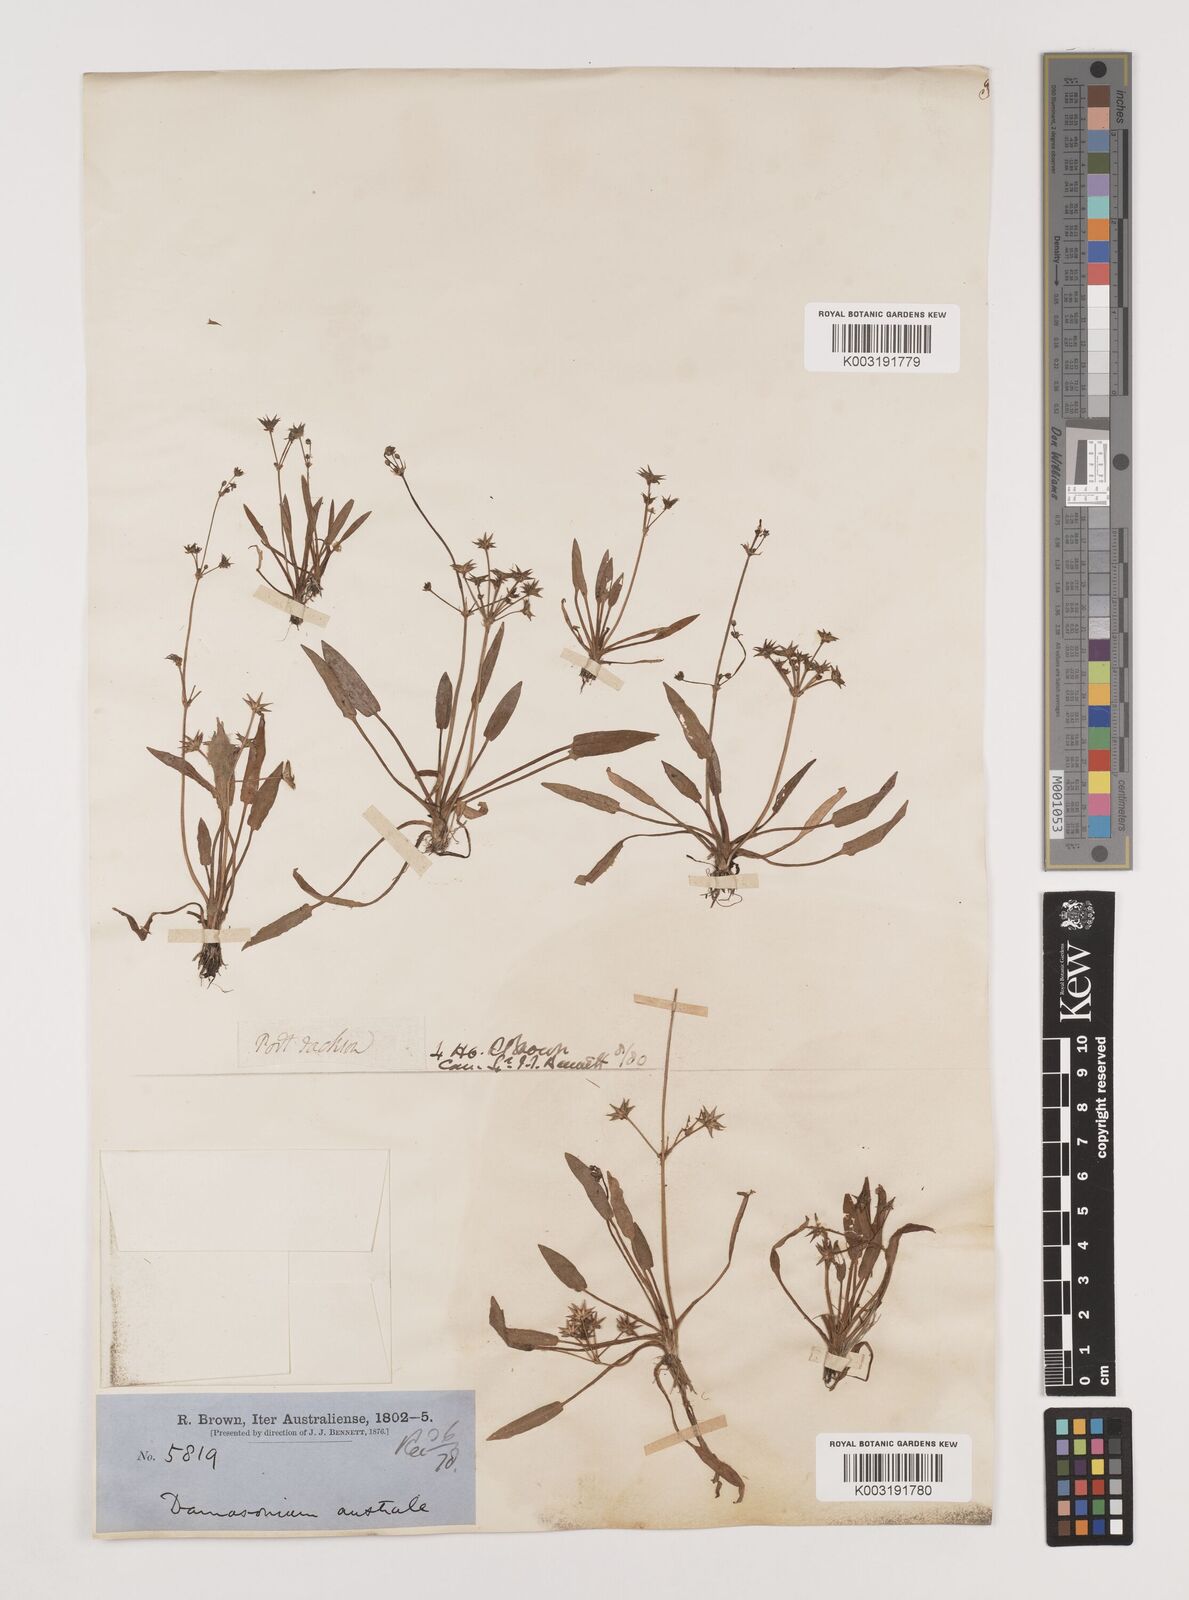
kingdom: Plantae
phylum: Tracheophyta
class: Liliopsida
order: Alismatales
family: Alismataceae
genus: Damasonium
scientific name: Damasonium minus
